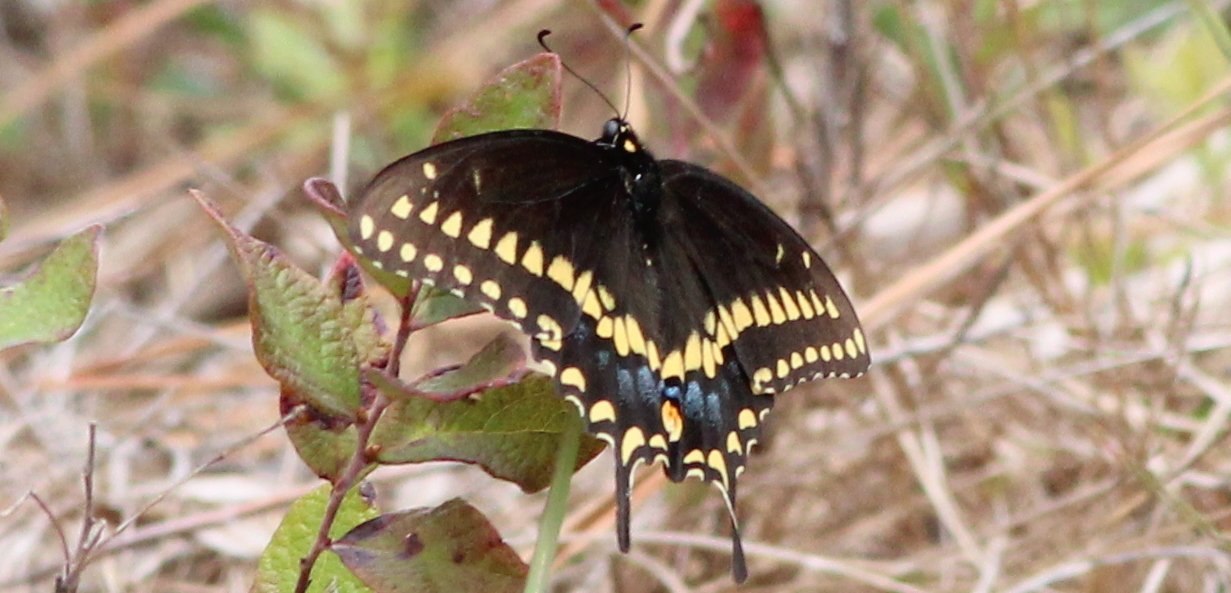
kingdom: Animalia
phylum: Arthropoda
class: Insecta
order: Lepidoptera
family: Papilionidae
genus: Papilio
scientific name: Papilio polyxenes
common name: Black Swallowtail
